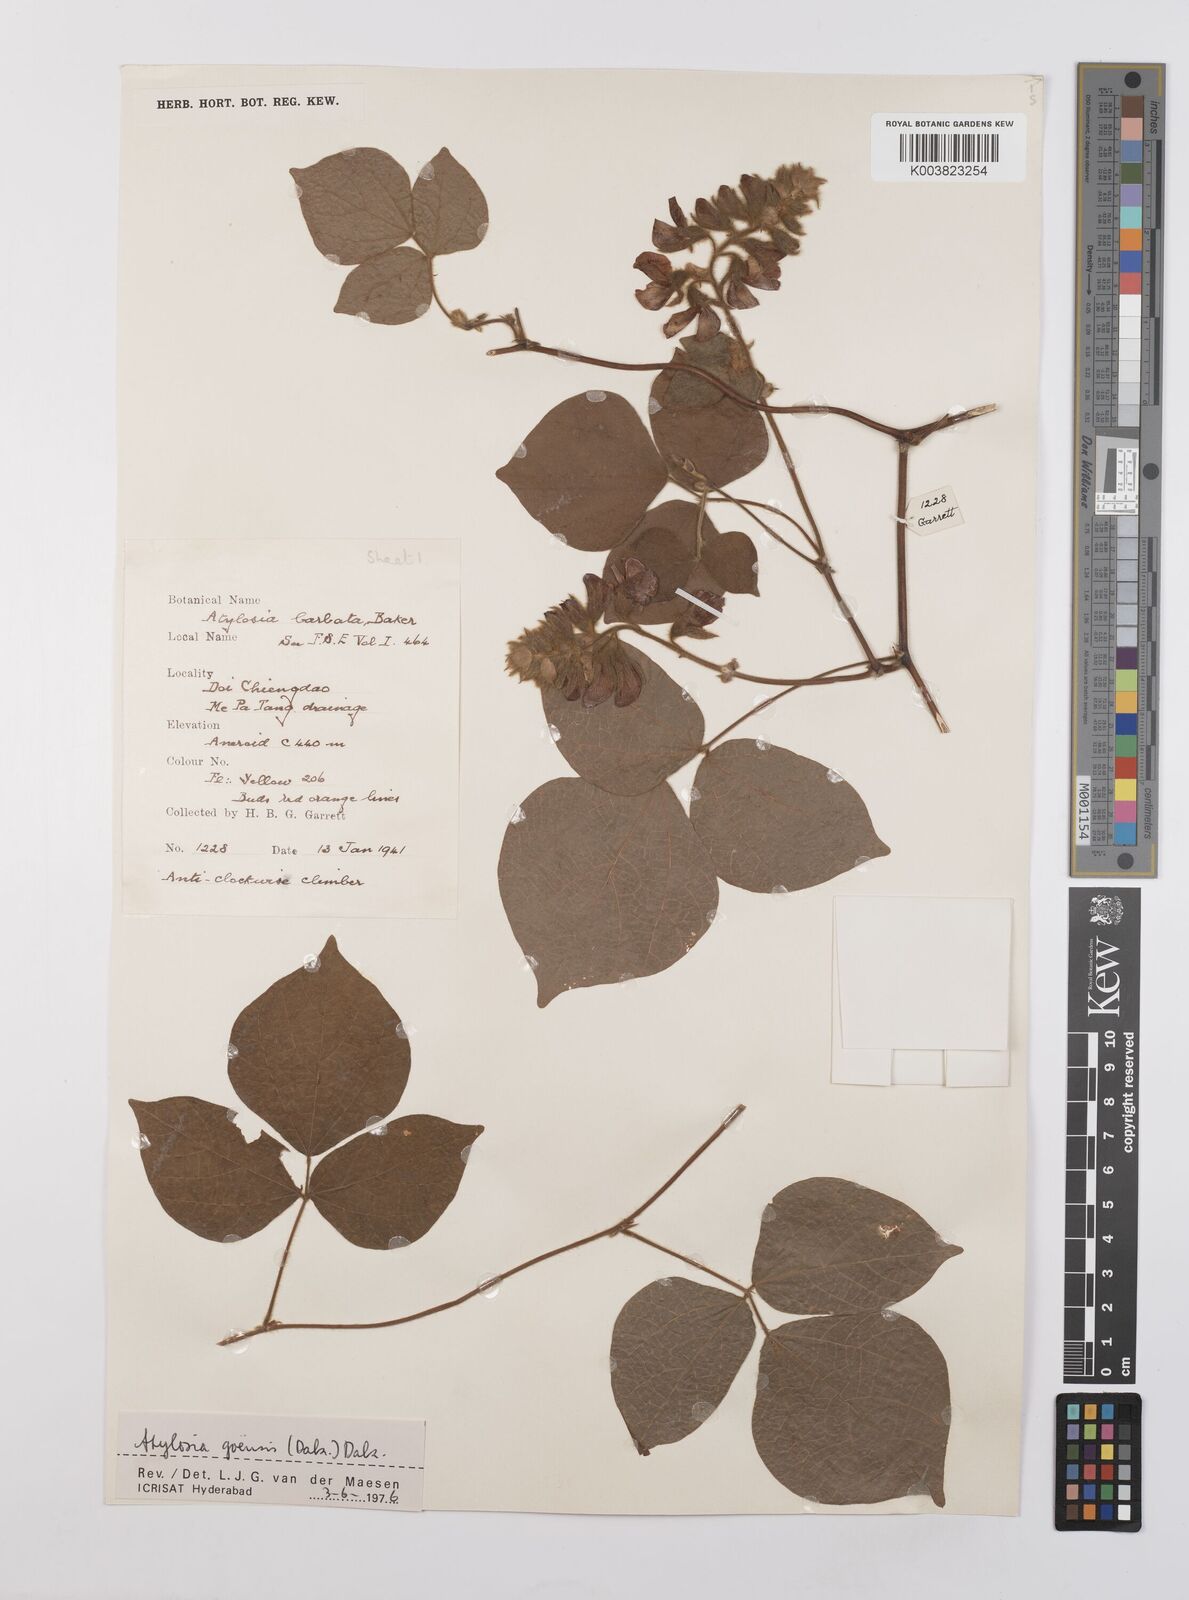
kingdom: Plantae
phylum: Tracheophyta
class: Magnoliopsida
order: Fabales
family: Fabaceae
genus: Cajanus
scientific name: Cajanus goensis
